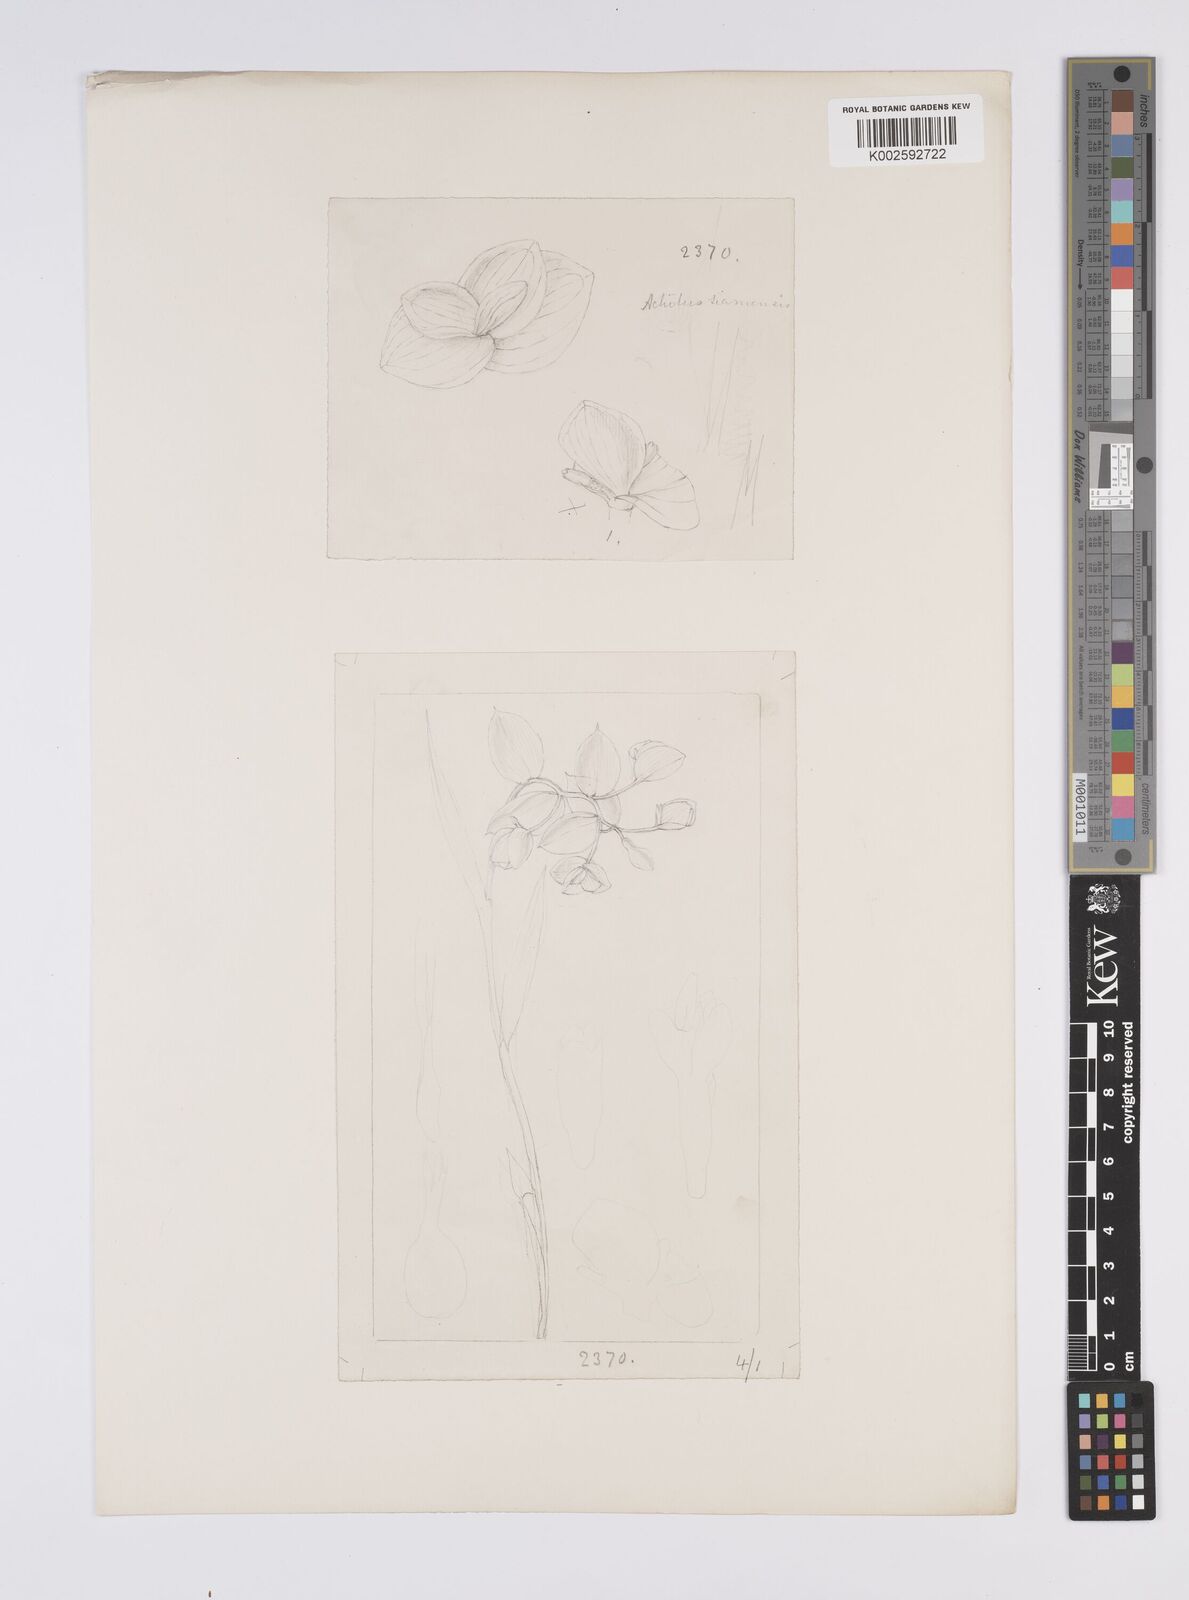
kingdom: Plantae
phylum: Tracheophyta
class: Liliopsida
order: Zingiberales
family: Zingiberaceae
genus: Globba
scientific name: Globba siamensis
